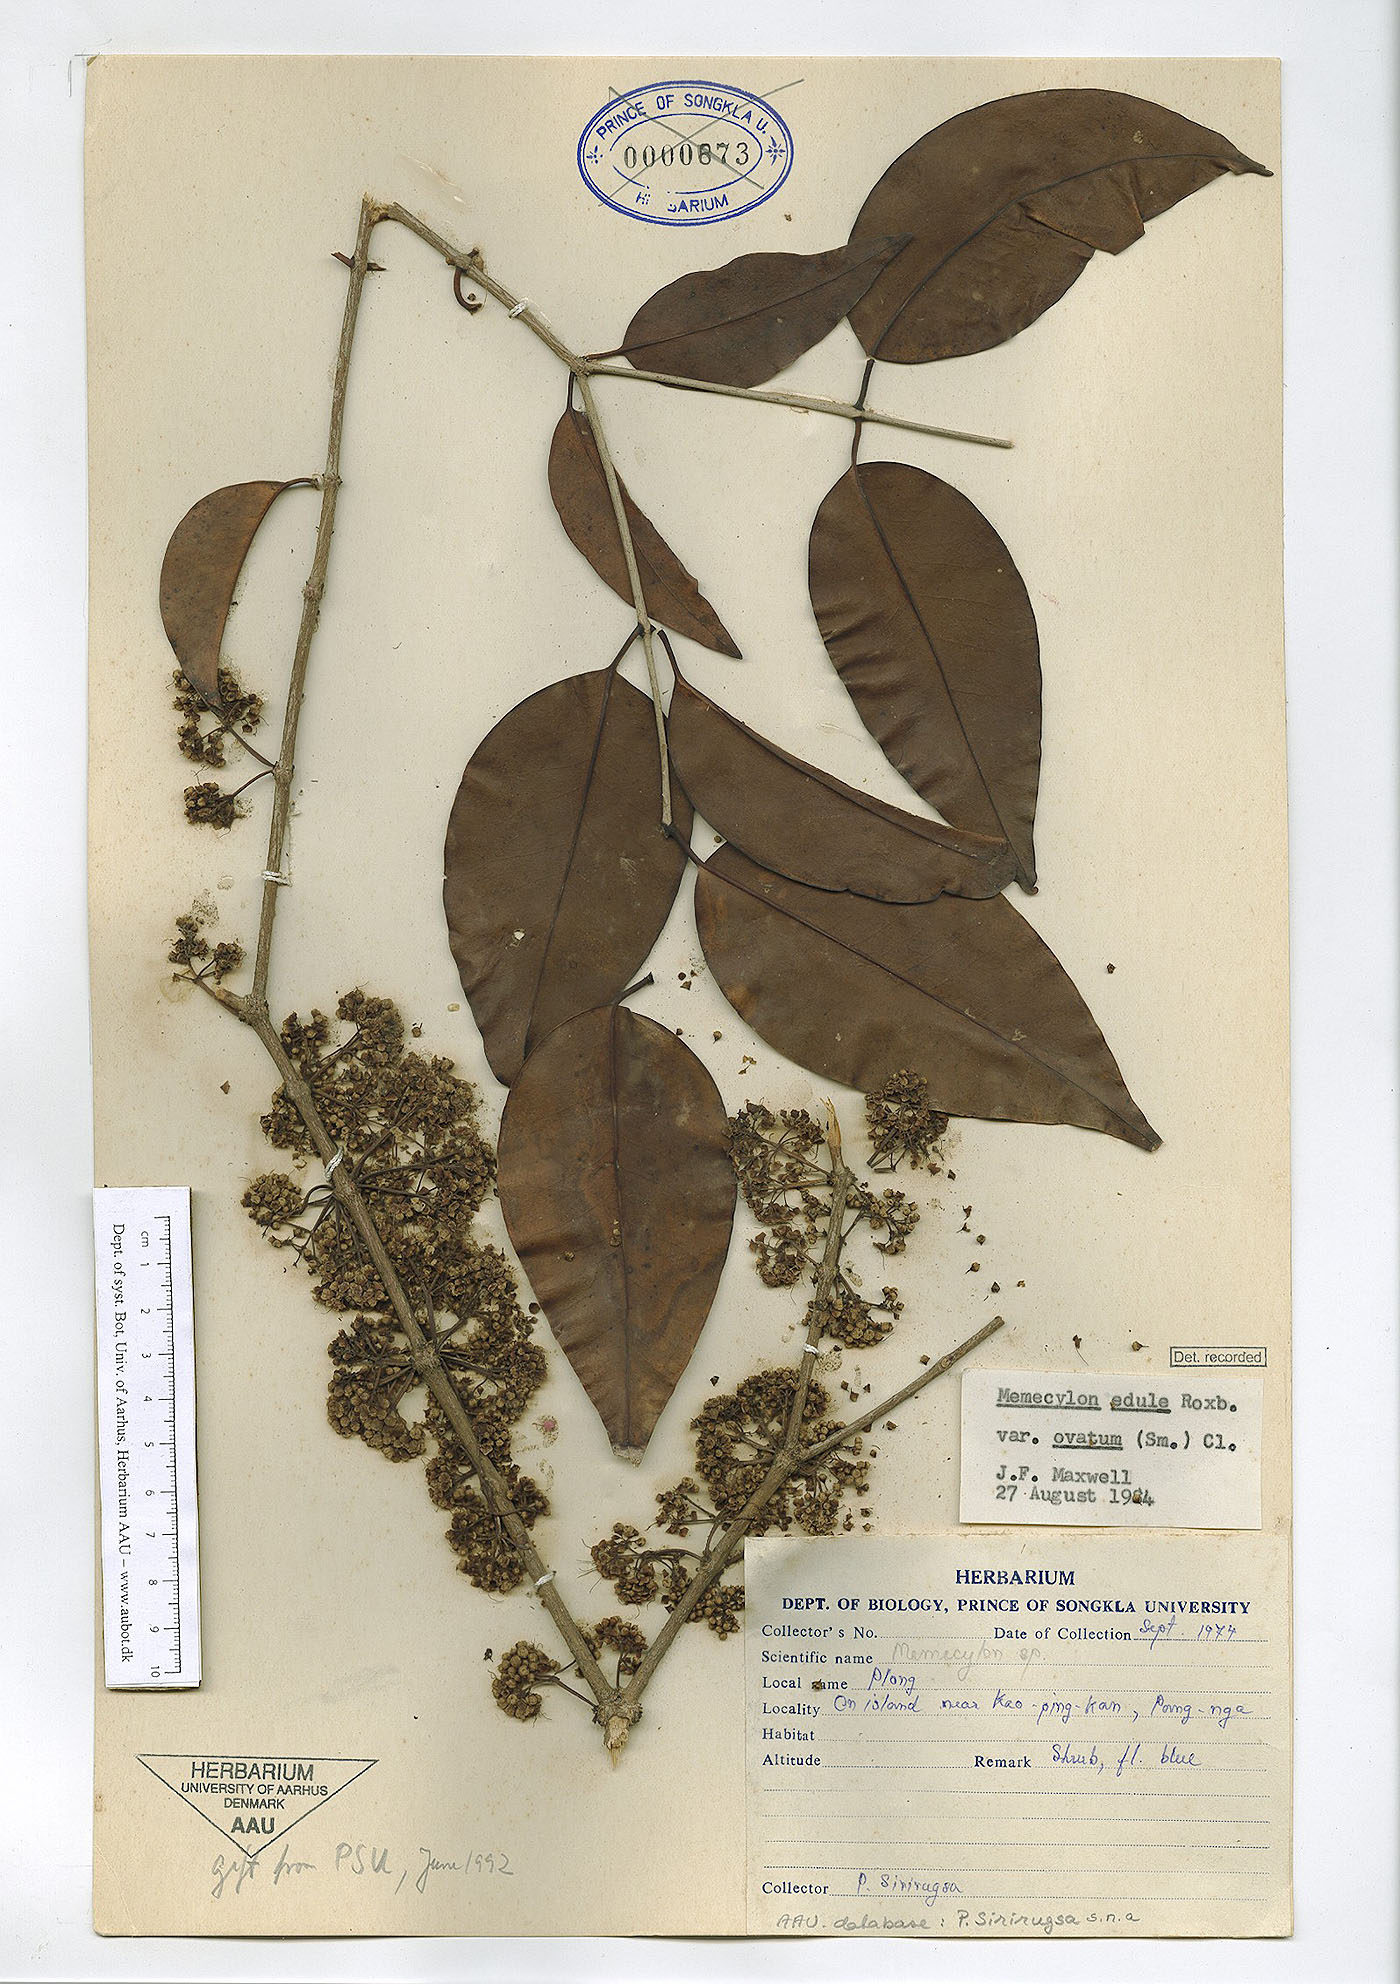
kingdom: Plantae
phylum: Tracheophyta
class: Magnoliopsida
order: Myrtales
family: Melastomataceae
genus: Memecylon
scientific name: Memecylon ovatum
